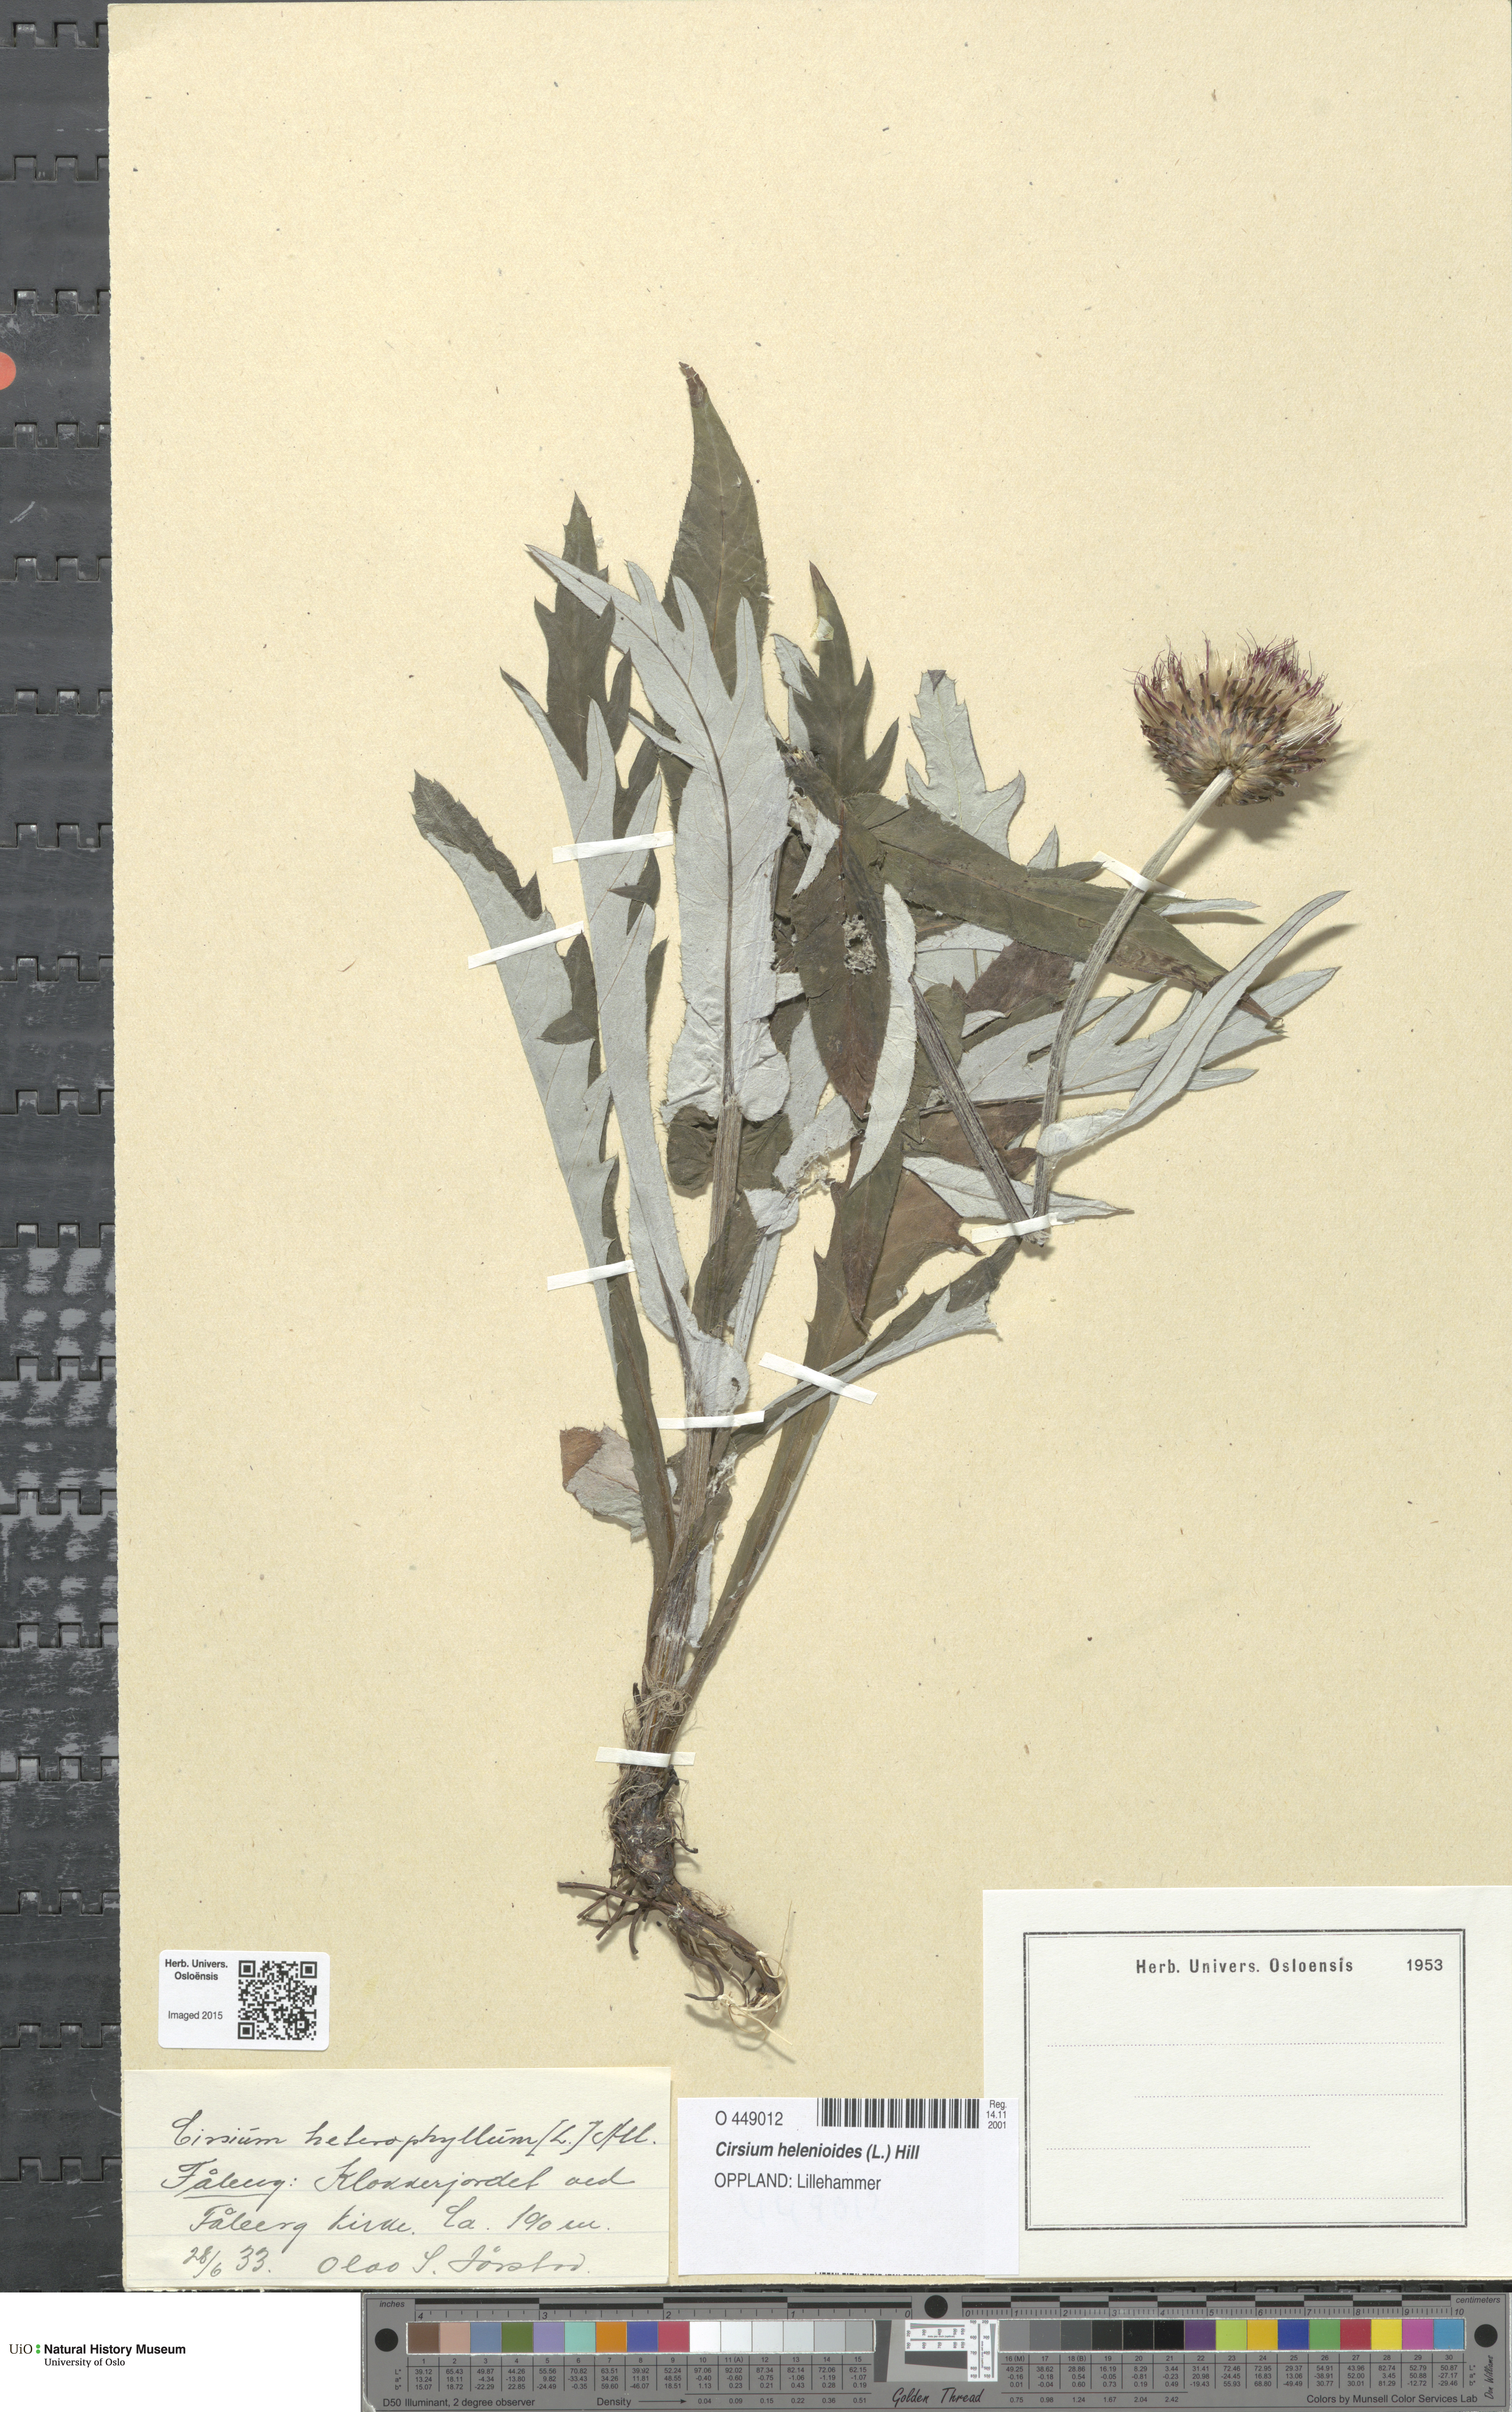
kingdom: Plantae
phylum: Tracheophyta
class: Magnoliopsida
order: Asterales
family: Asteraceae
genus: Cirsium
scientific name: Cirsium heterophyllum
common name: Melancholy thistle
